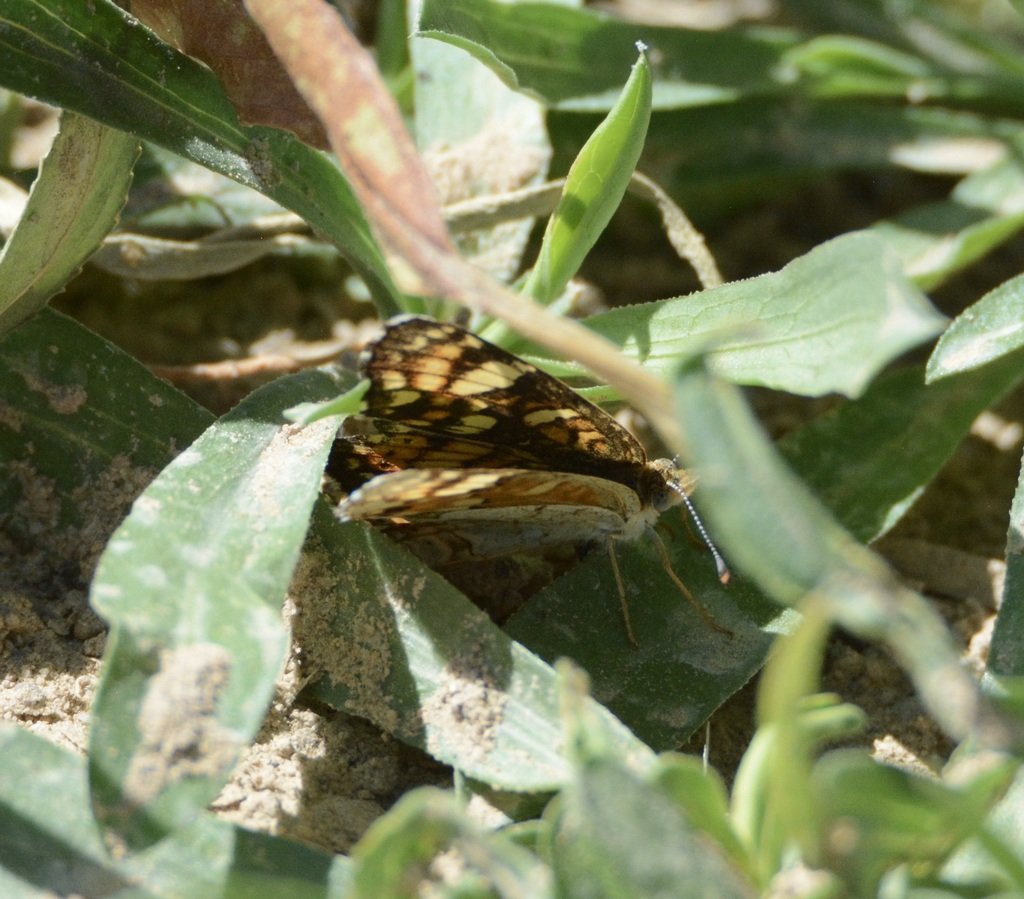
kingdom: Animalia
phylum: Arthropoda
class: Insecta
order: Lepidoptera
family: Nymphalidae
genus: Phyciodes
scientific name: Phyciodes tharos
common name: Field Crescent
